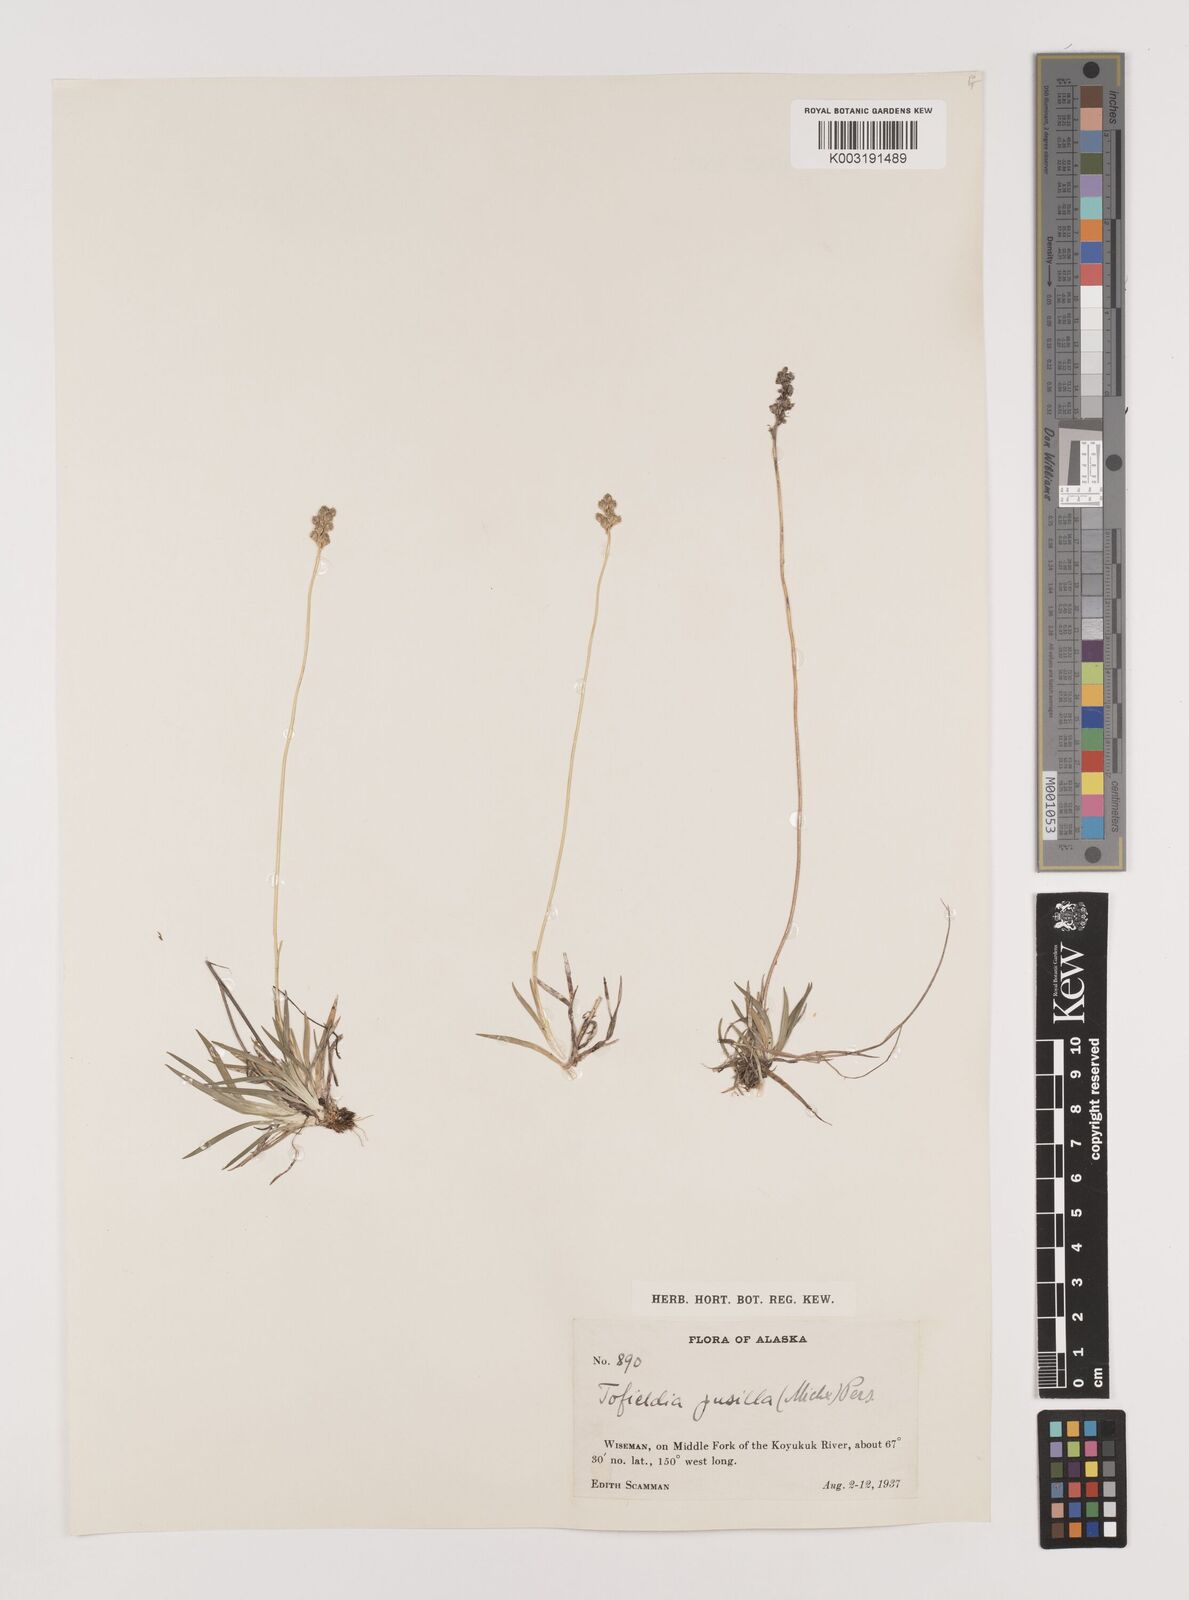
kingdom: Plantae
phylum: Tracheophyta
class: Liliopsida
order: Alismatales
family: Tofieldiaceae
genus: Tofieldia
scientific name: Tofieldia pusilla
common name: Scottish false asphodel
